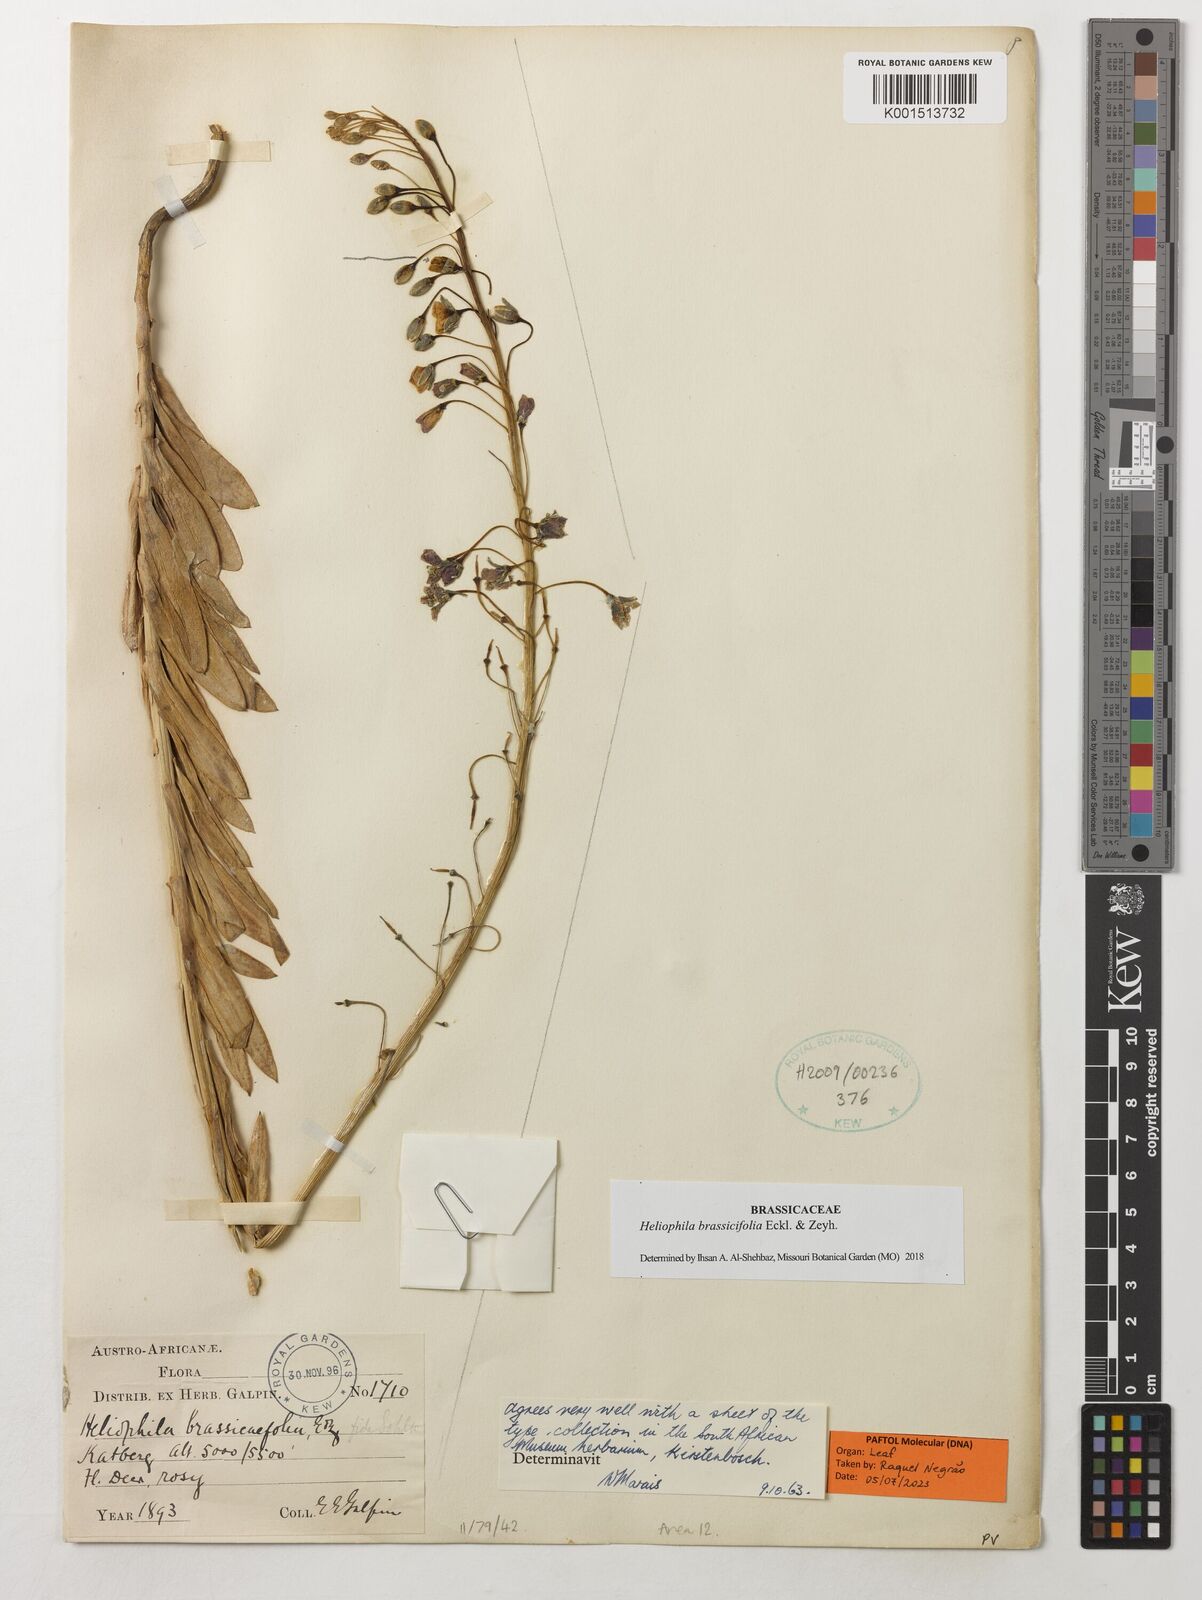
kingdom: Plantae
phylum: Tracheophyta
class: Magnoliopsida
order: Brassicales
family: Brassicaceae
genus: Heliophila
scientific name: Heliophila brassicifolia
